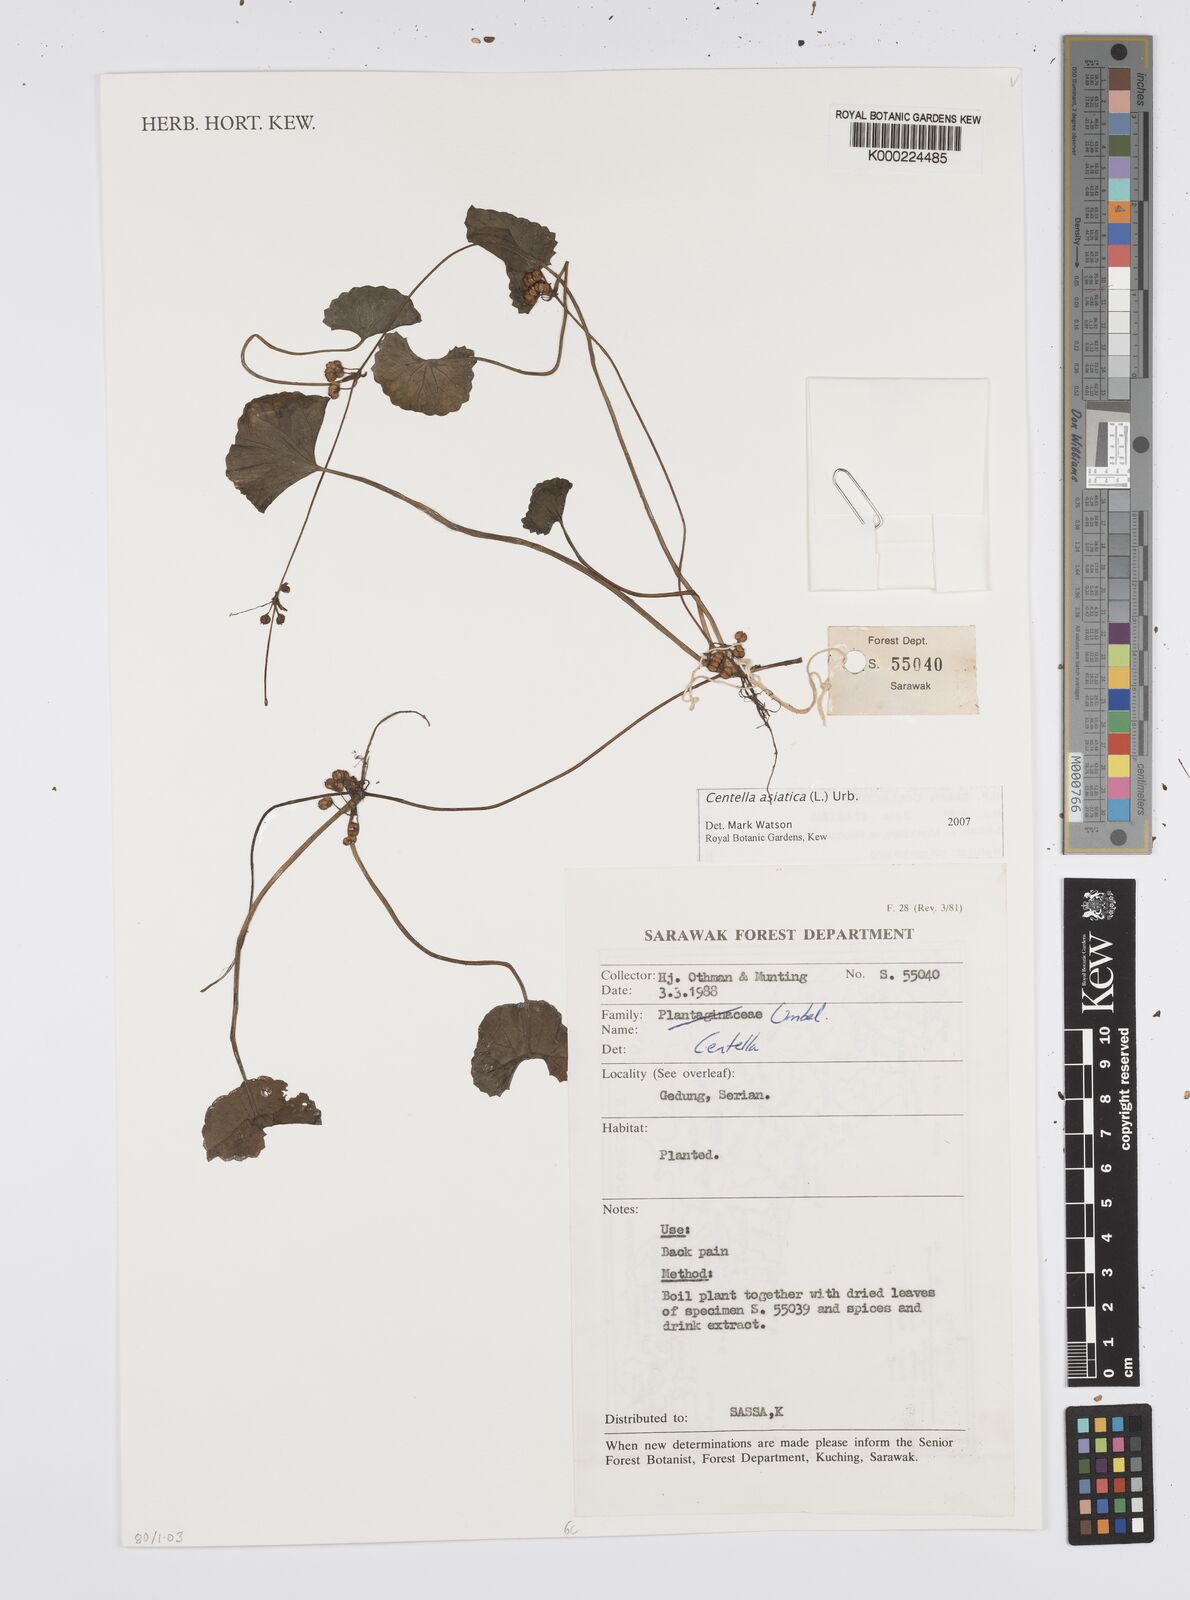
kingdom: Plantae
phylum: Tracheophyta
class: Magnoliopsida
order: Apiales
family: Apiaceae
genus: Centella
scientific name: Centella asiatica
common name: Spadeleaf
